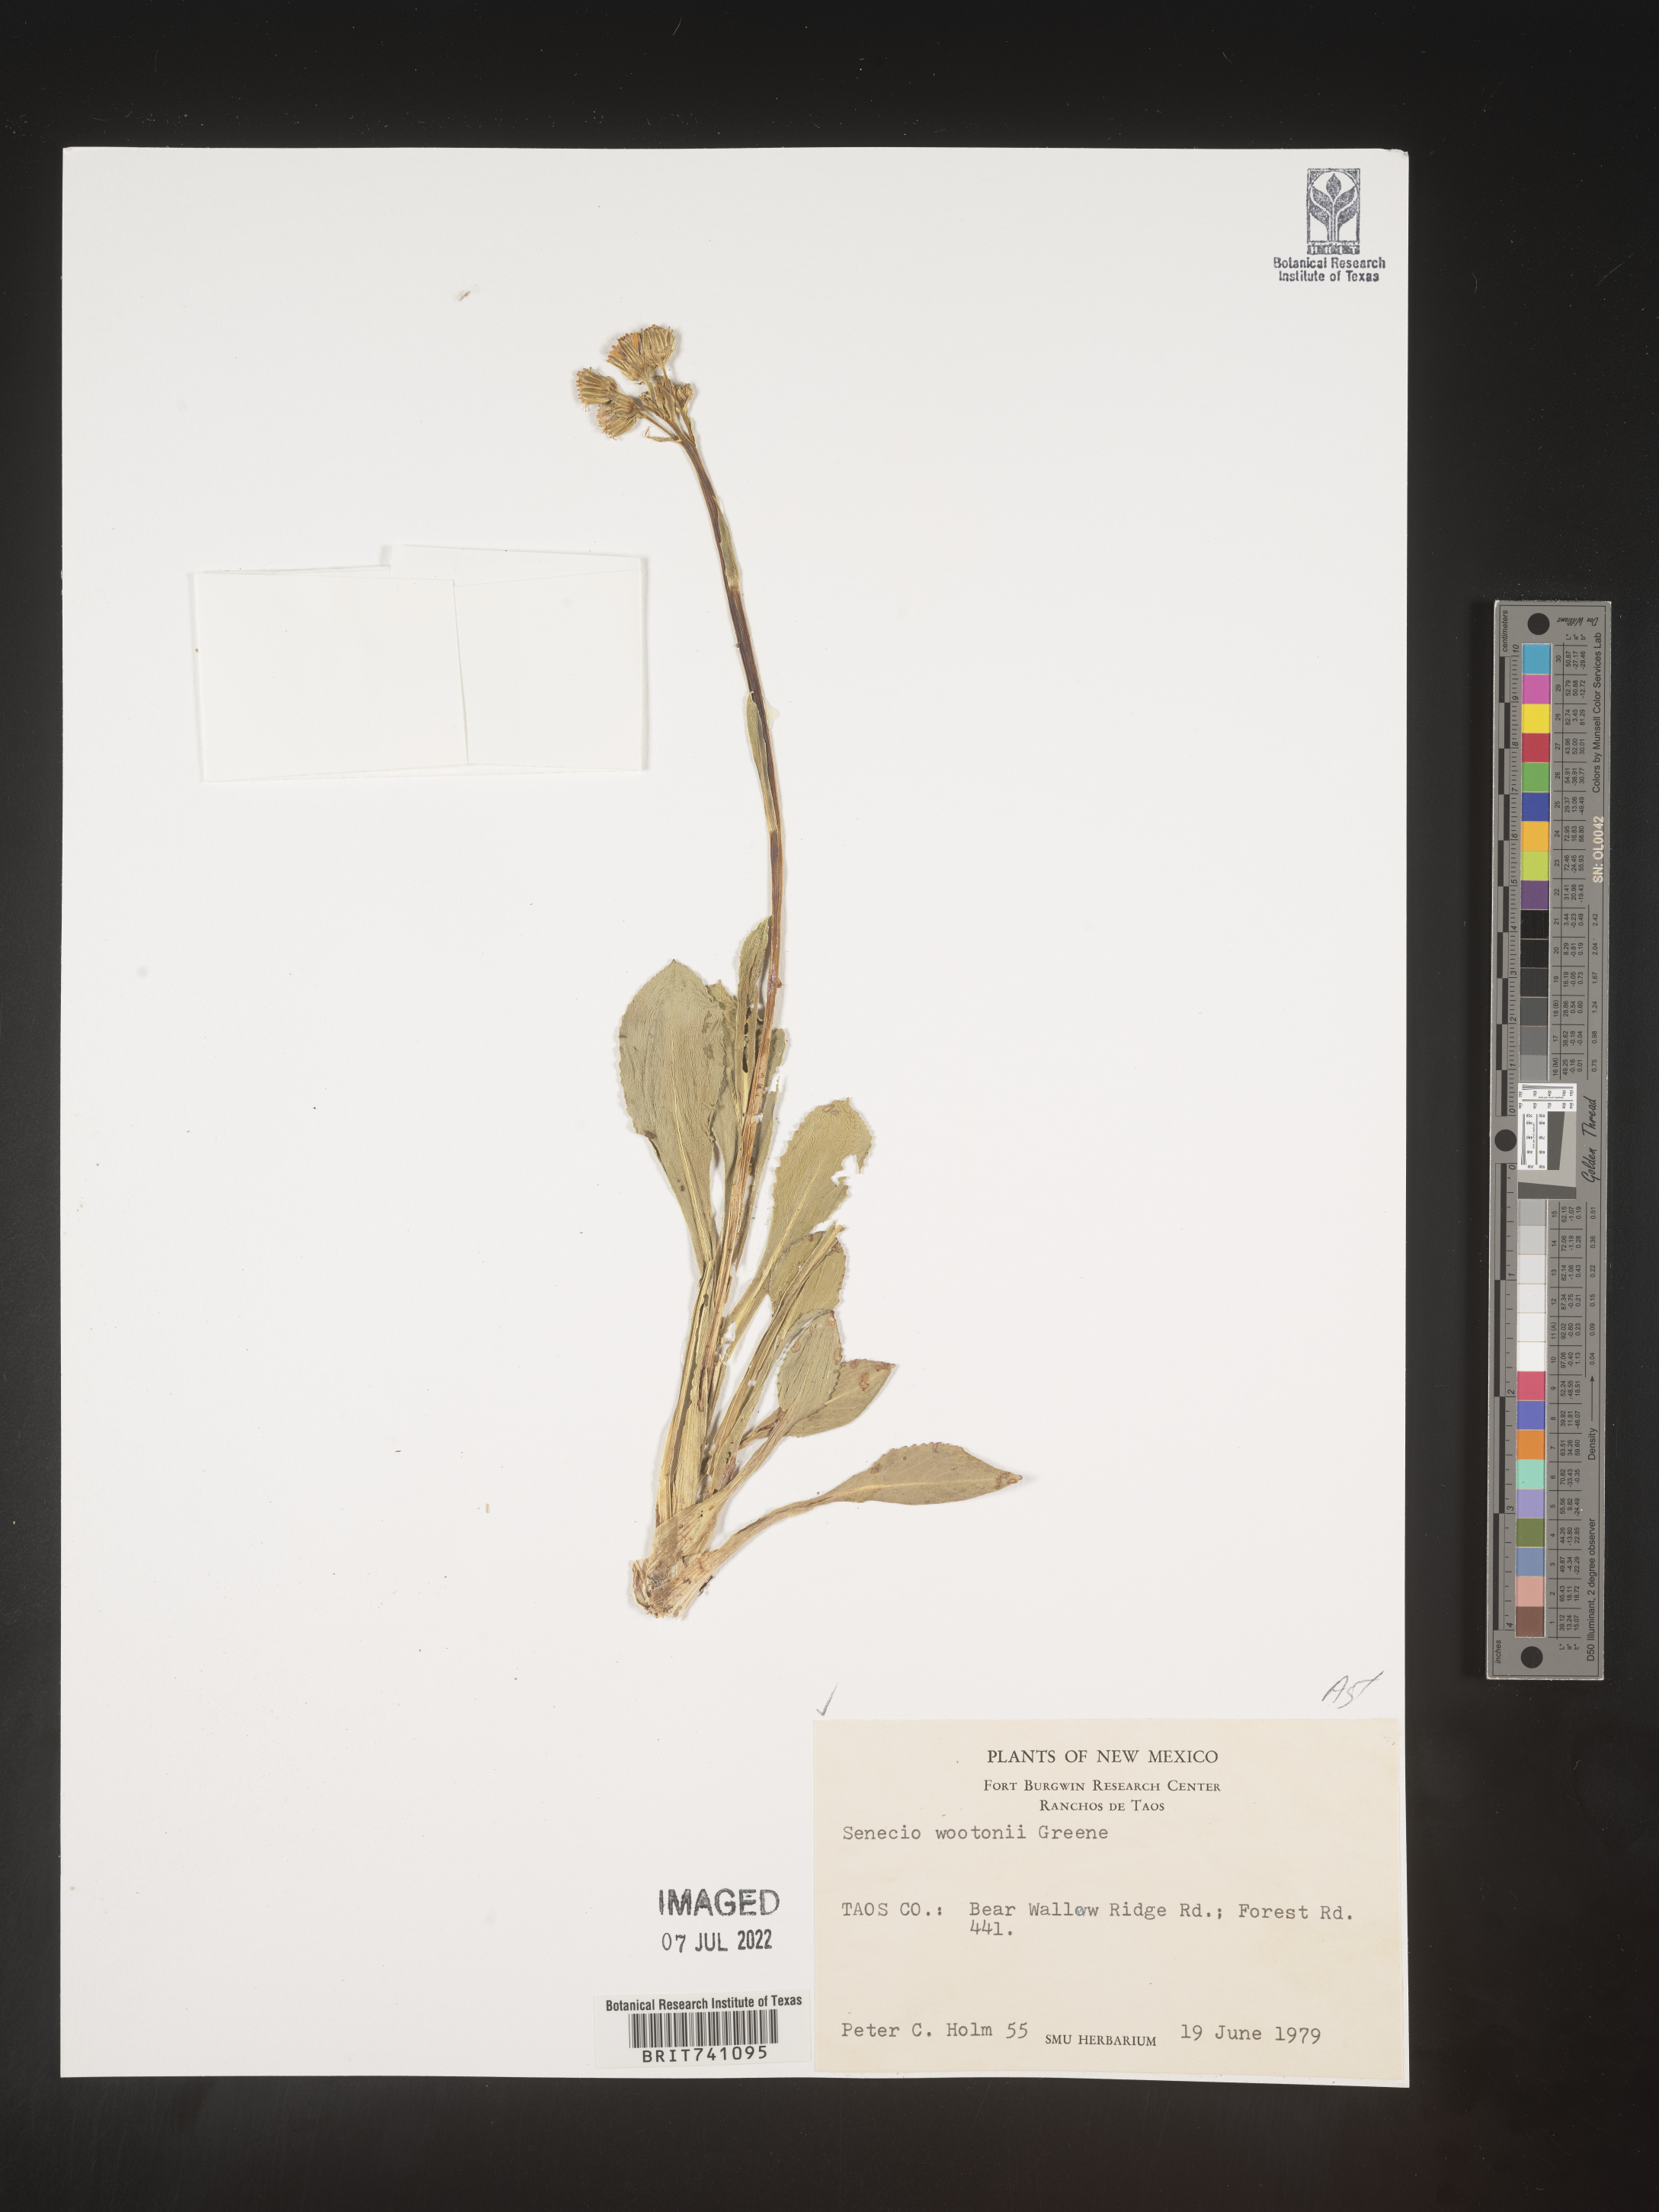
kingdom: Plantae
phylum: Tracheophyta
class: Magnoliopsida
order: Asterales
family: Asteraceae
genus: Senecio
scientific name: Senecio wootonii
